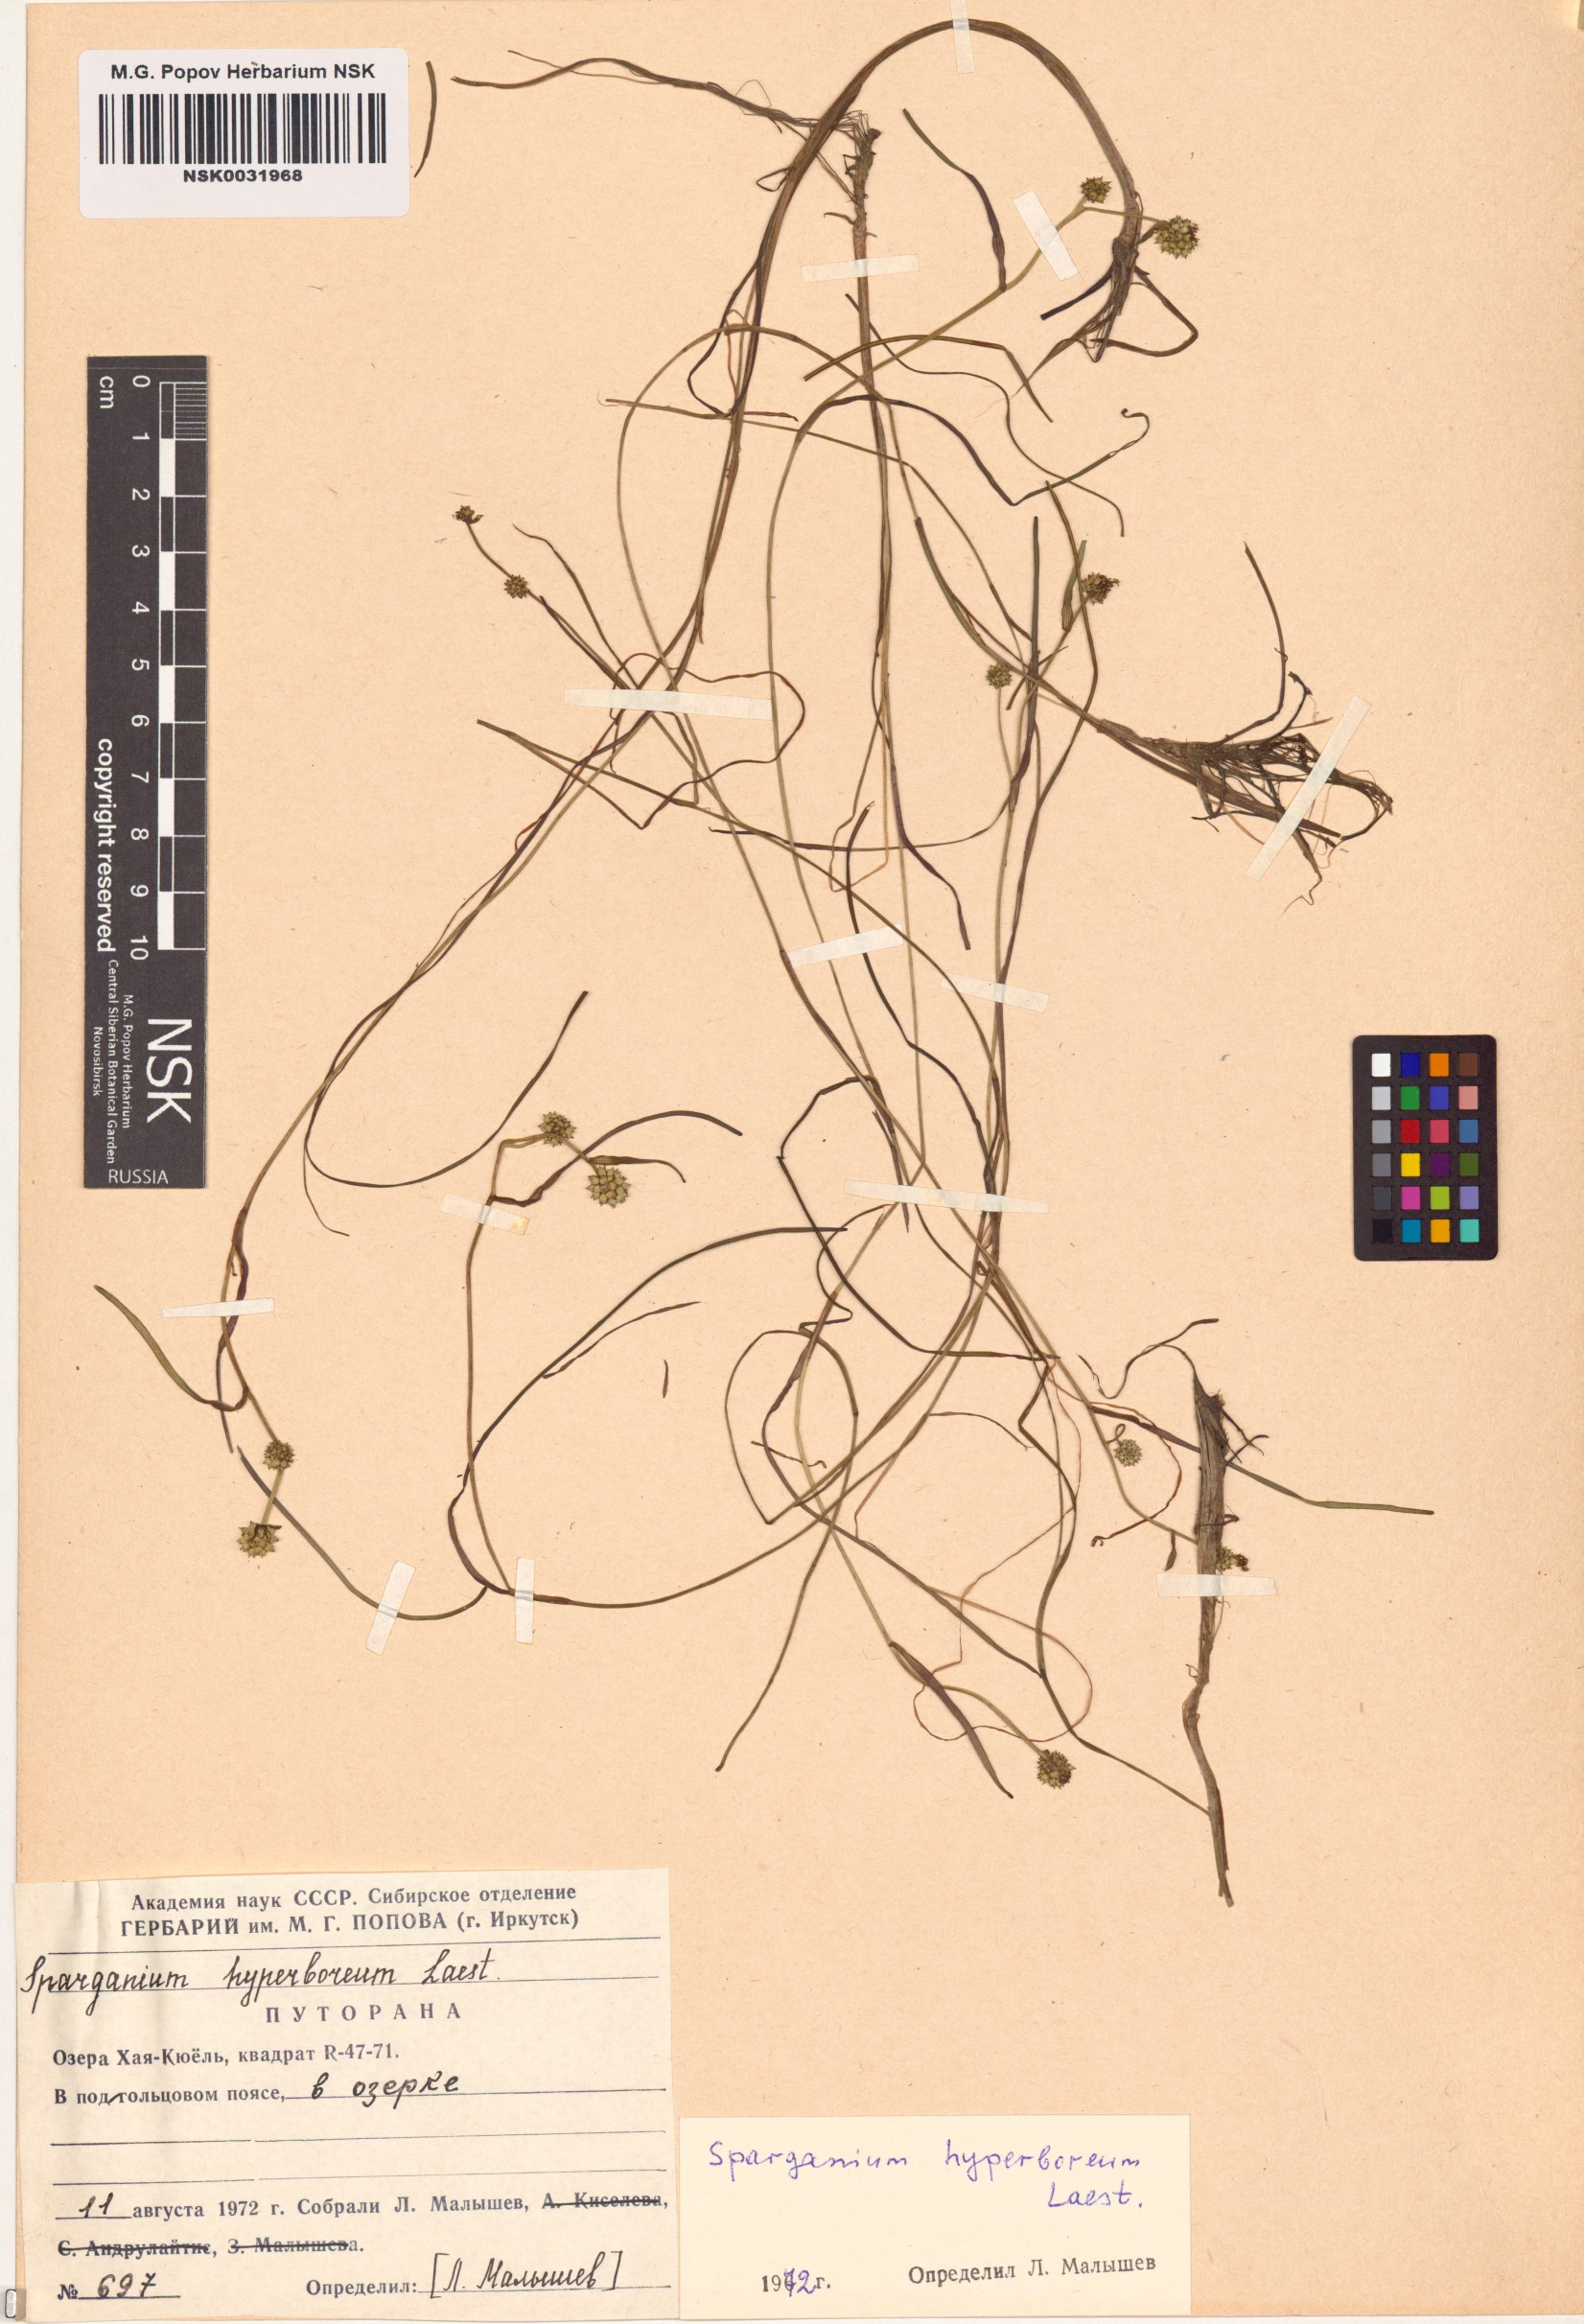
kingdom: Plantae
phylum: Tracheophyta
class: Liliopsida
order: Poales
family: Typhaceae
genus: Sparganium
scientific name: Sparganium hyperboreum
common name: Arctic burreed
